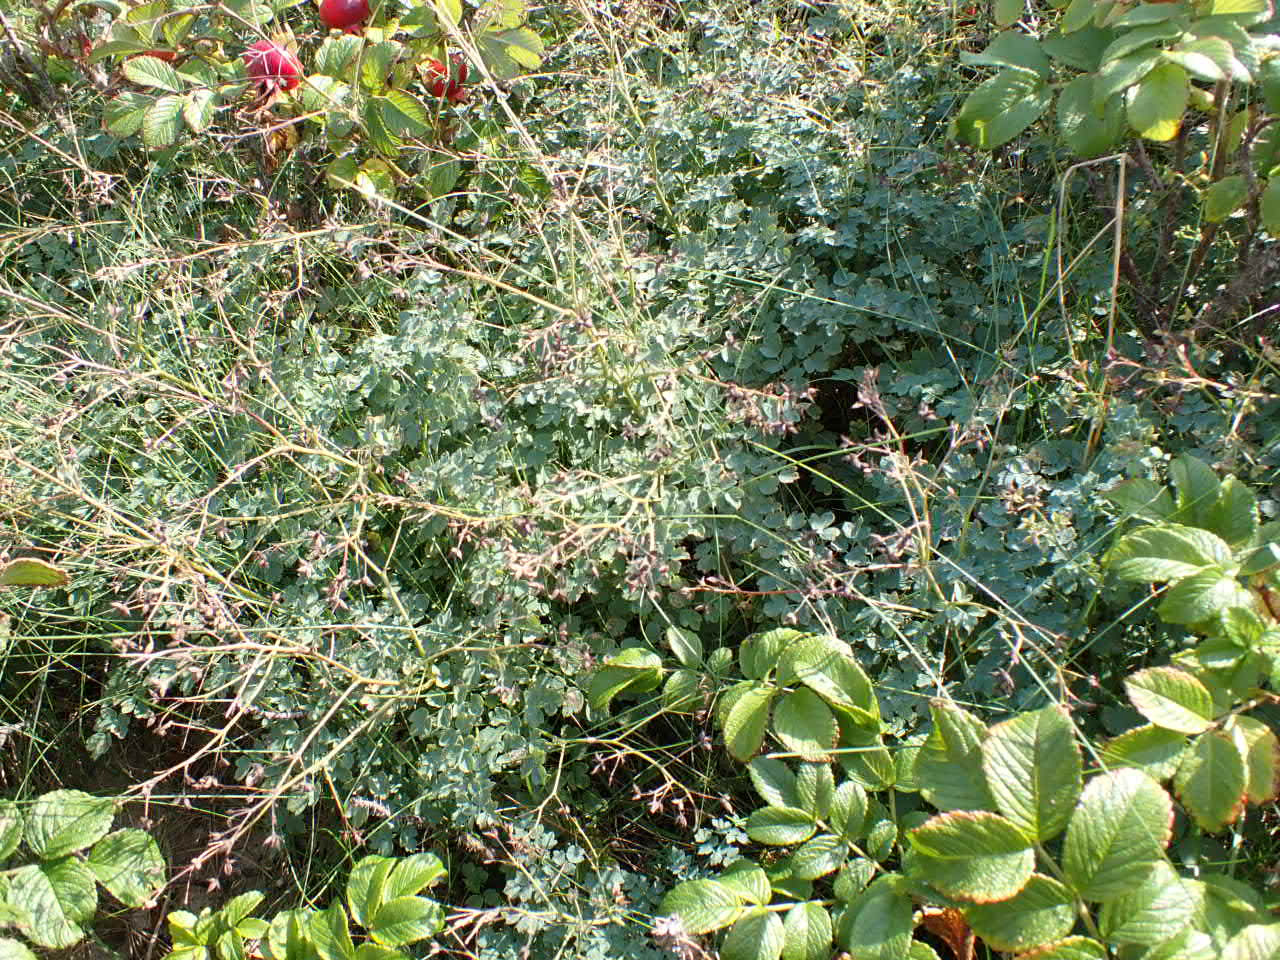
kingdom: Plantae
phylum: Tracheophyta
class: Magnoliopsida
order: Ranunculales
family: Ranunculaceae
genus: Thalictrum
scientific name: Thalictrum minus
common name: Liden frøstjerne
